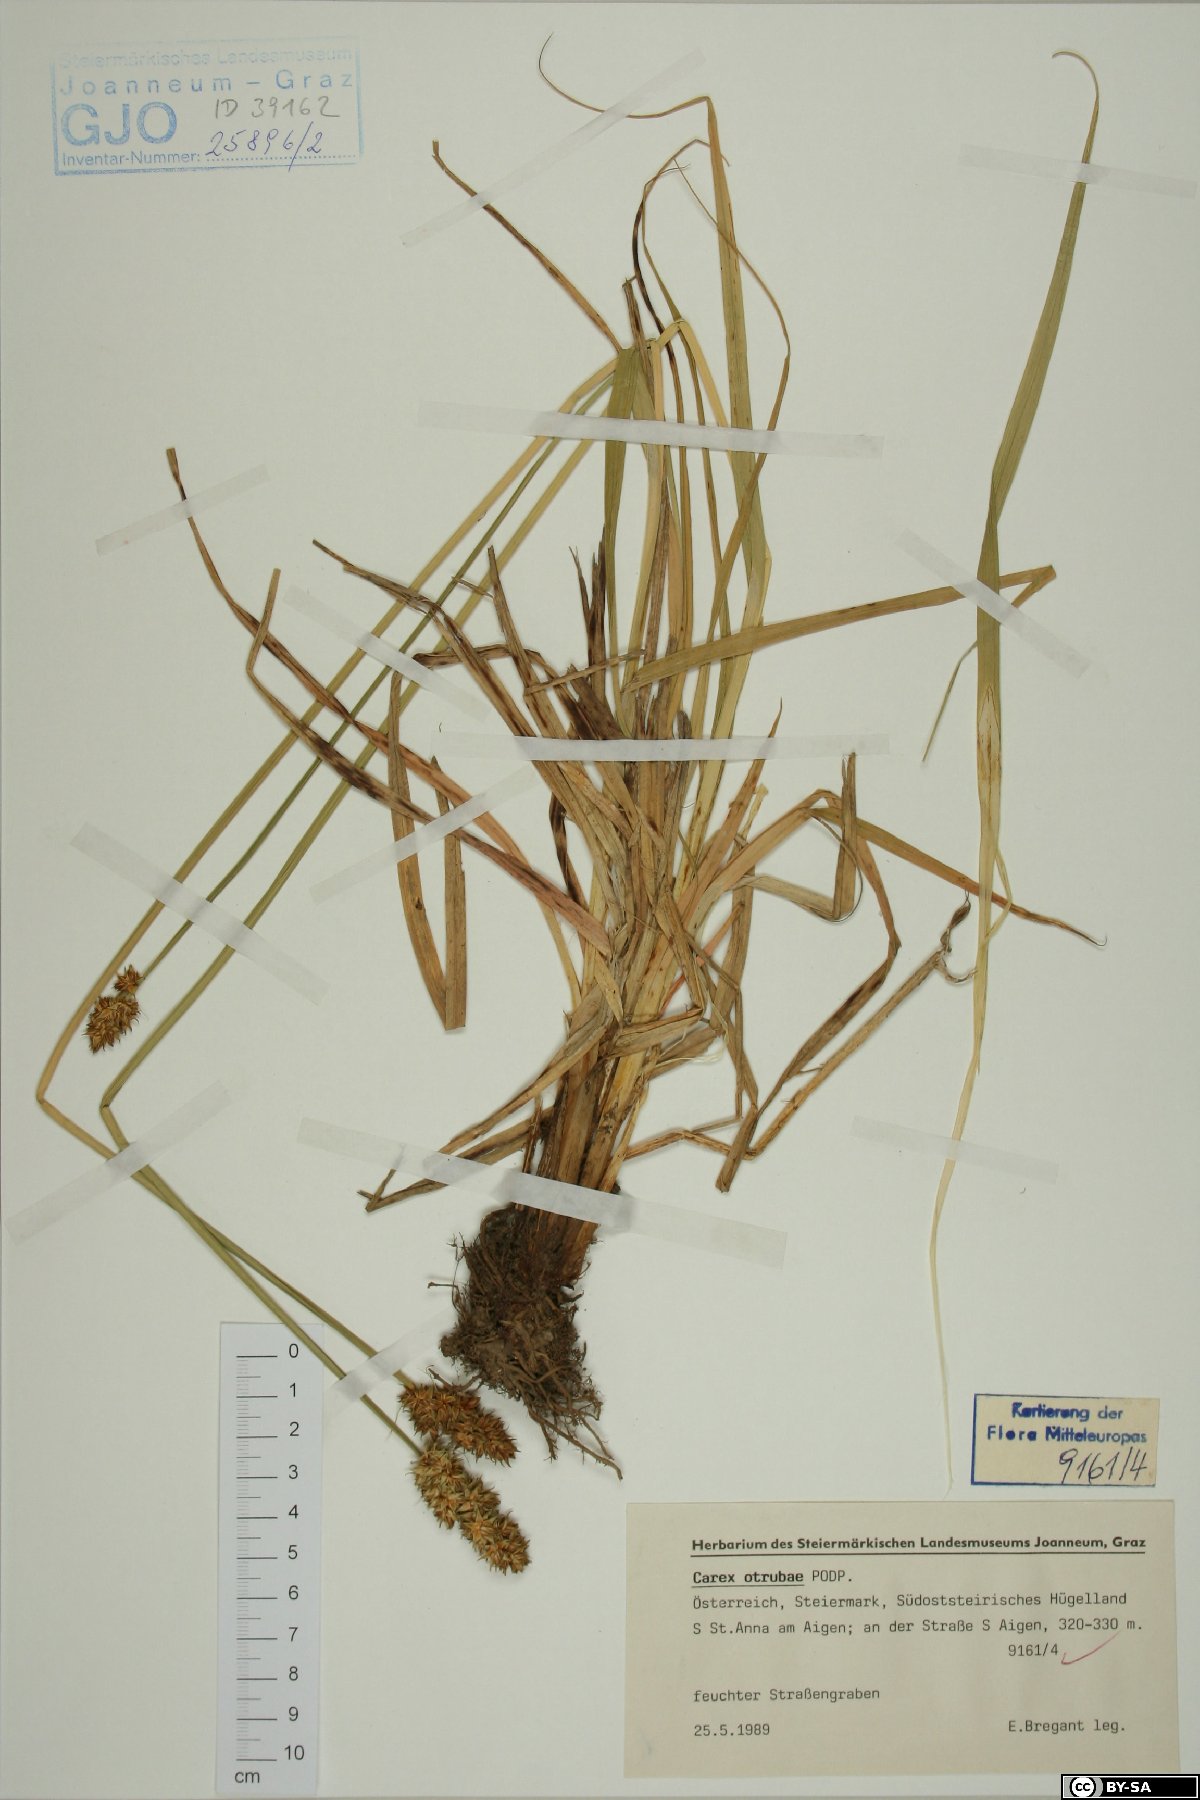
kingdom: Plantae
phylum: Tracheophyta
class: Liliopsida
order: Poales
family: Cyperaceae
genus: Carex
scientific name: Carex otrubae
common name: False fox-sedge
